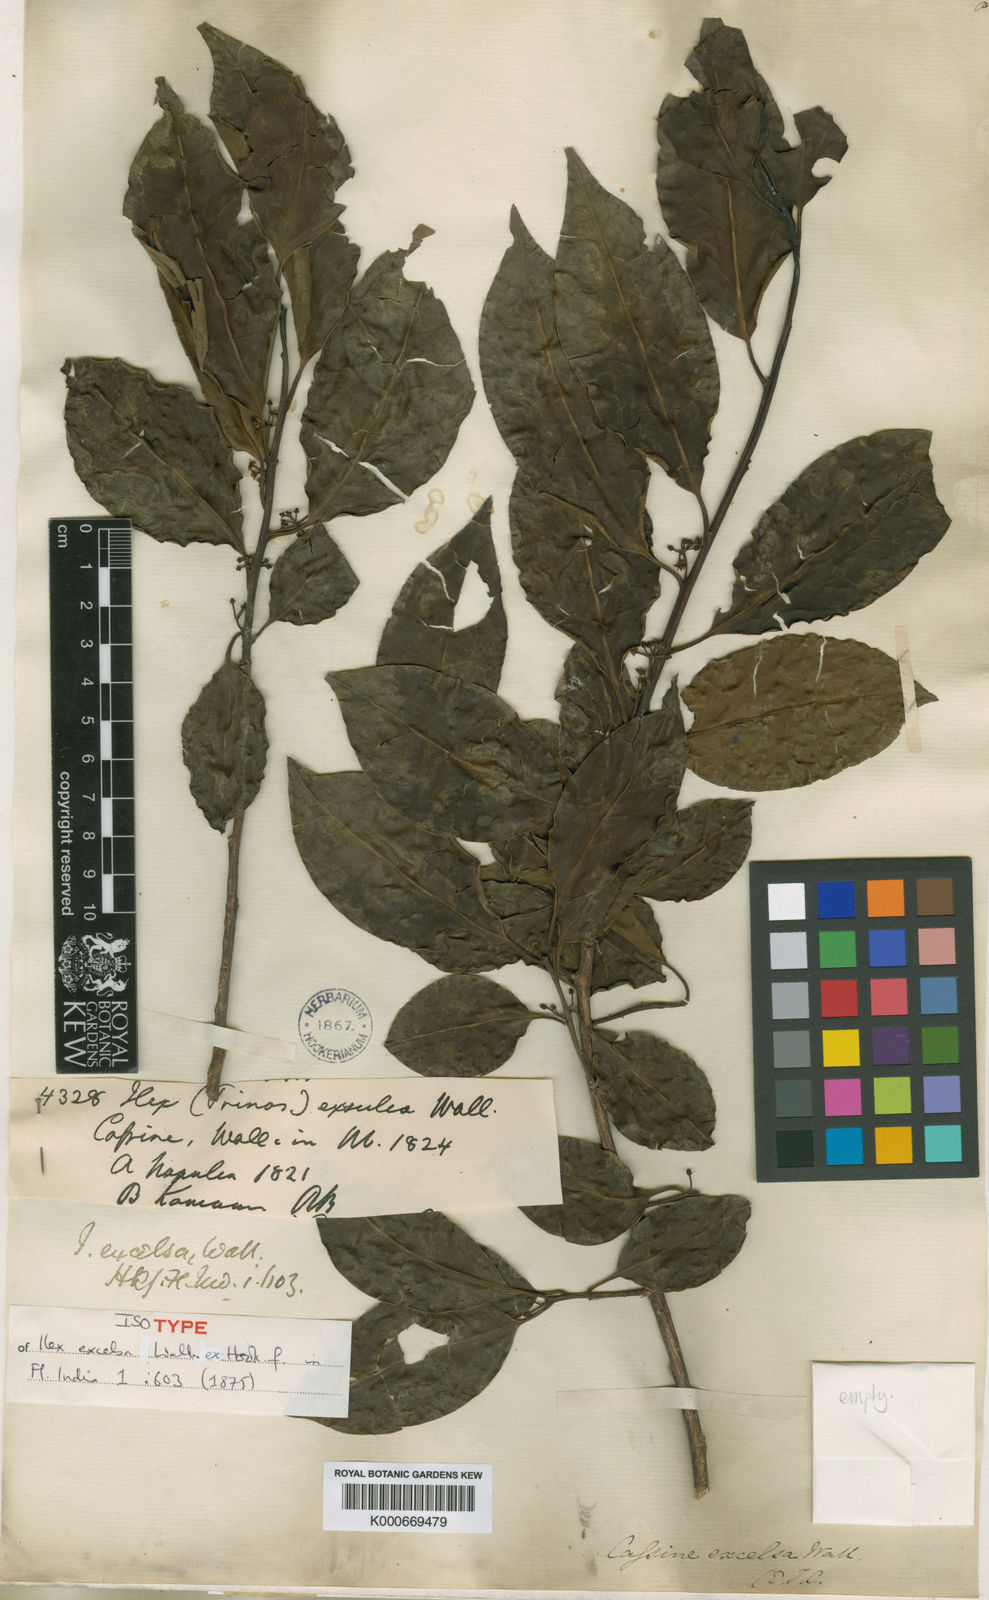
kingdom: Plantae
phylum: Tracheophyta
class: Magnoliopsida
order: Aquifoliales
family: Aquifoliaceae
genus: Ilex
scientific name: Ilex excelsa
